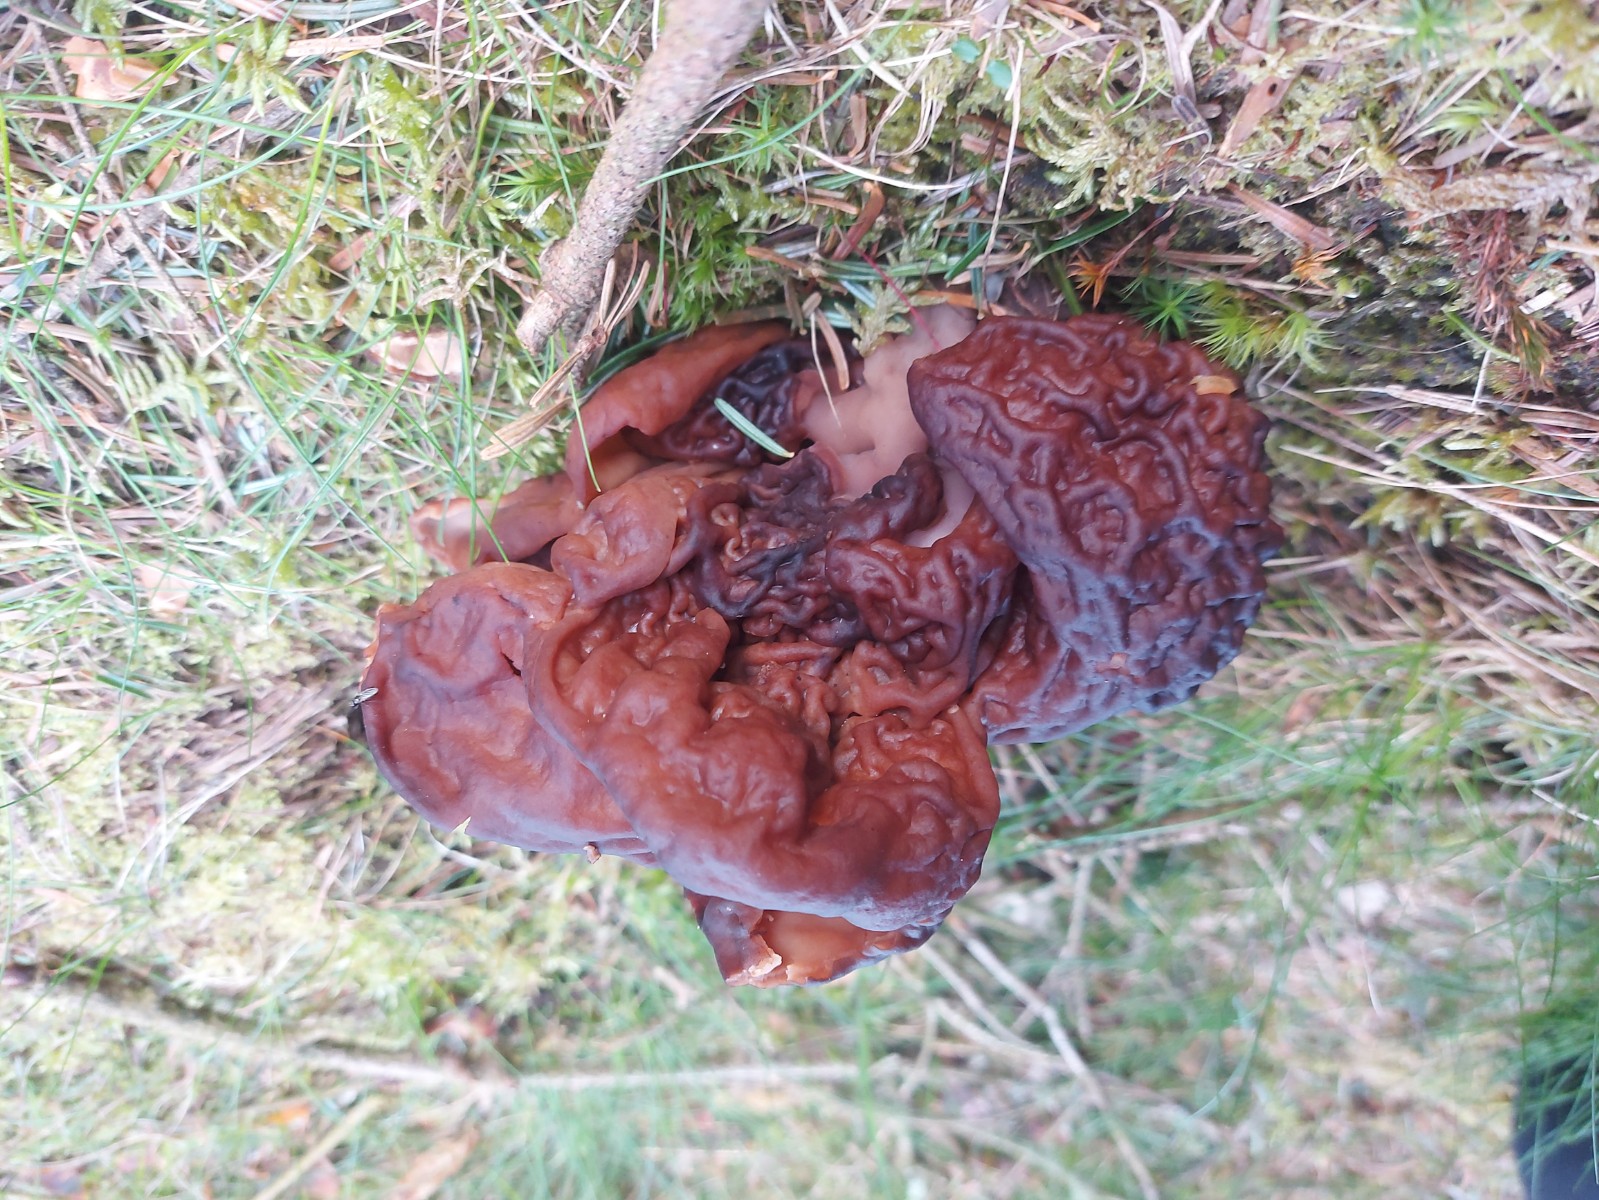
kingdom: Fungi
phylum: Ascomycota
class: Pezizomycetes
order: Pezizales
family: Discinaceae
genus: Gyromitra
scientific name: Gyromitra esculenta
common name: ægte stenmorkel
